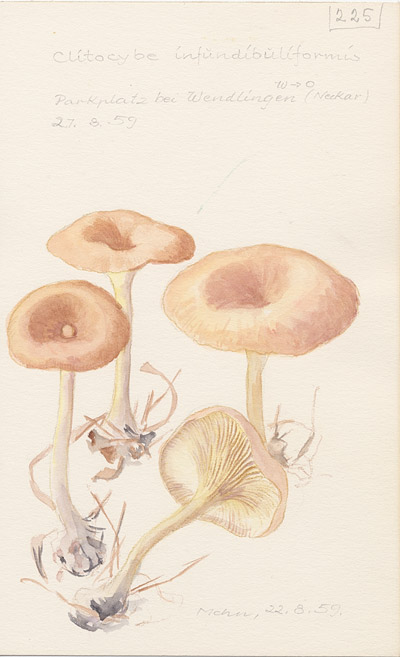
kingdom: Fungi
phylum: Basidiomycota
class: Agaricomycetes
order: Agaricales
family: Tricholomataceae
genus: Infundibulicybe
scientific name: Infundibulicybe gibba
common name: Common funnel
